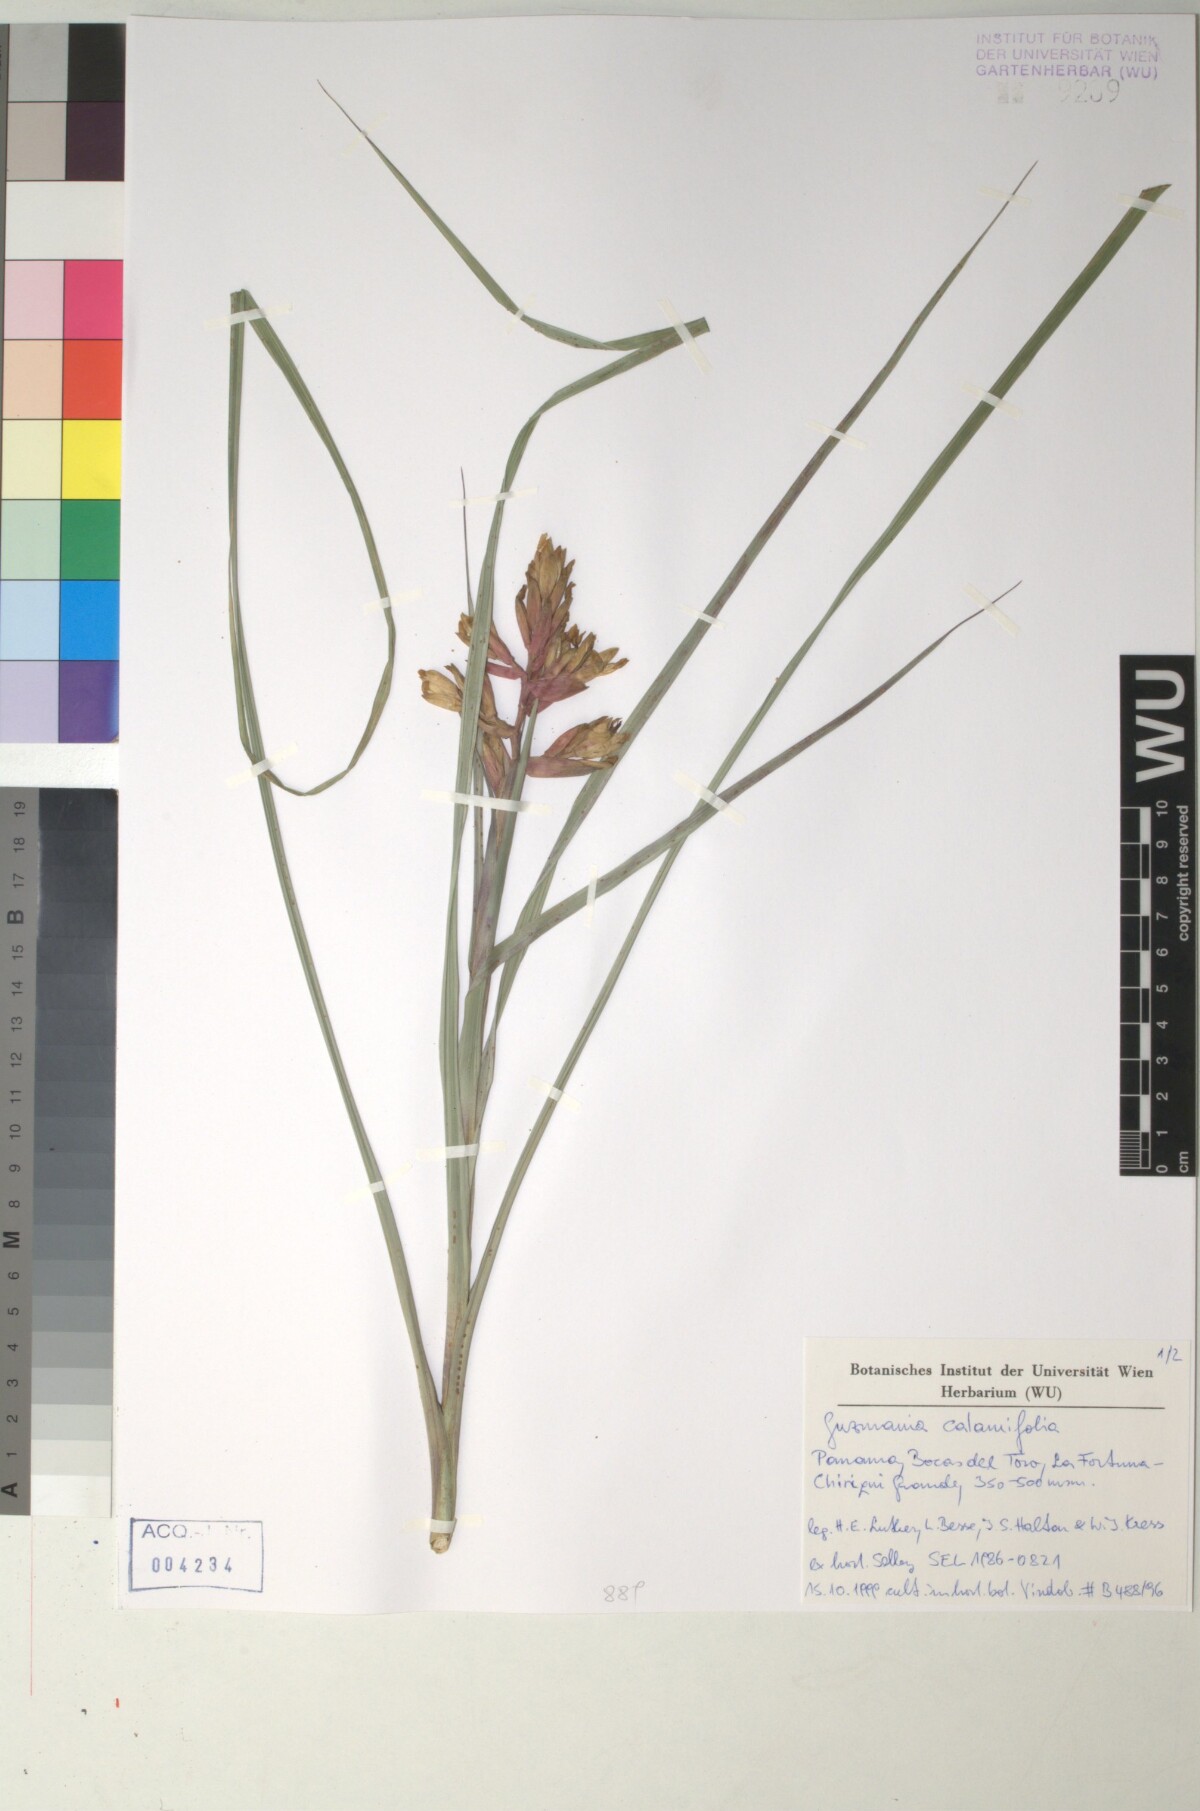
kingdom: Plantae
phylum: Tracheophyta
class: Liliopsida
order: Poales
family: Bromeliaceae
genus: Guzmania
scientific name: Guzmania calamifolia
